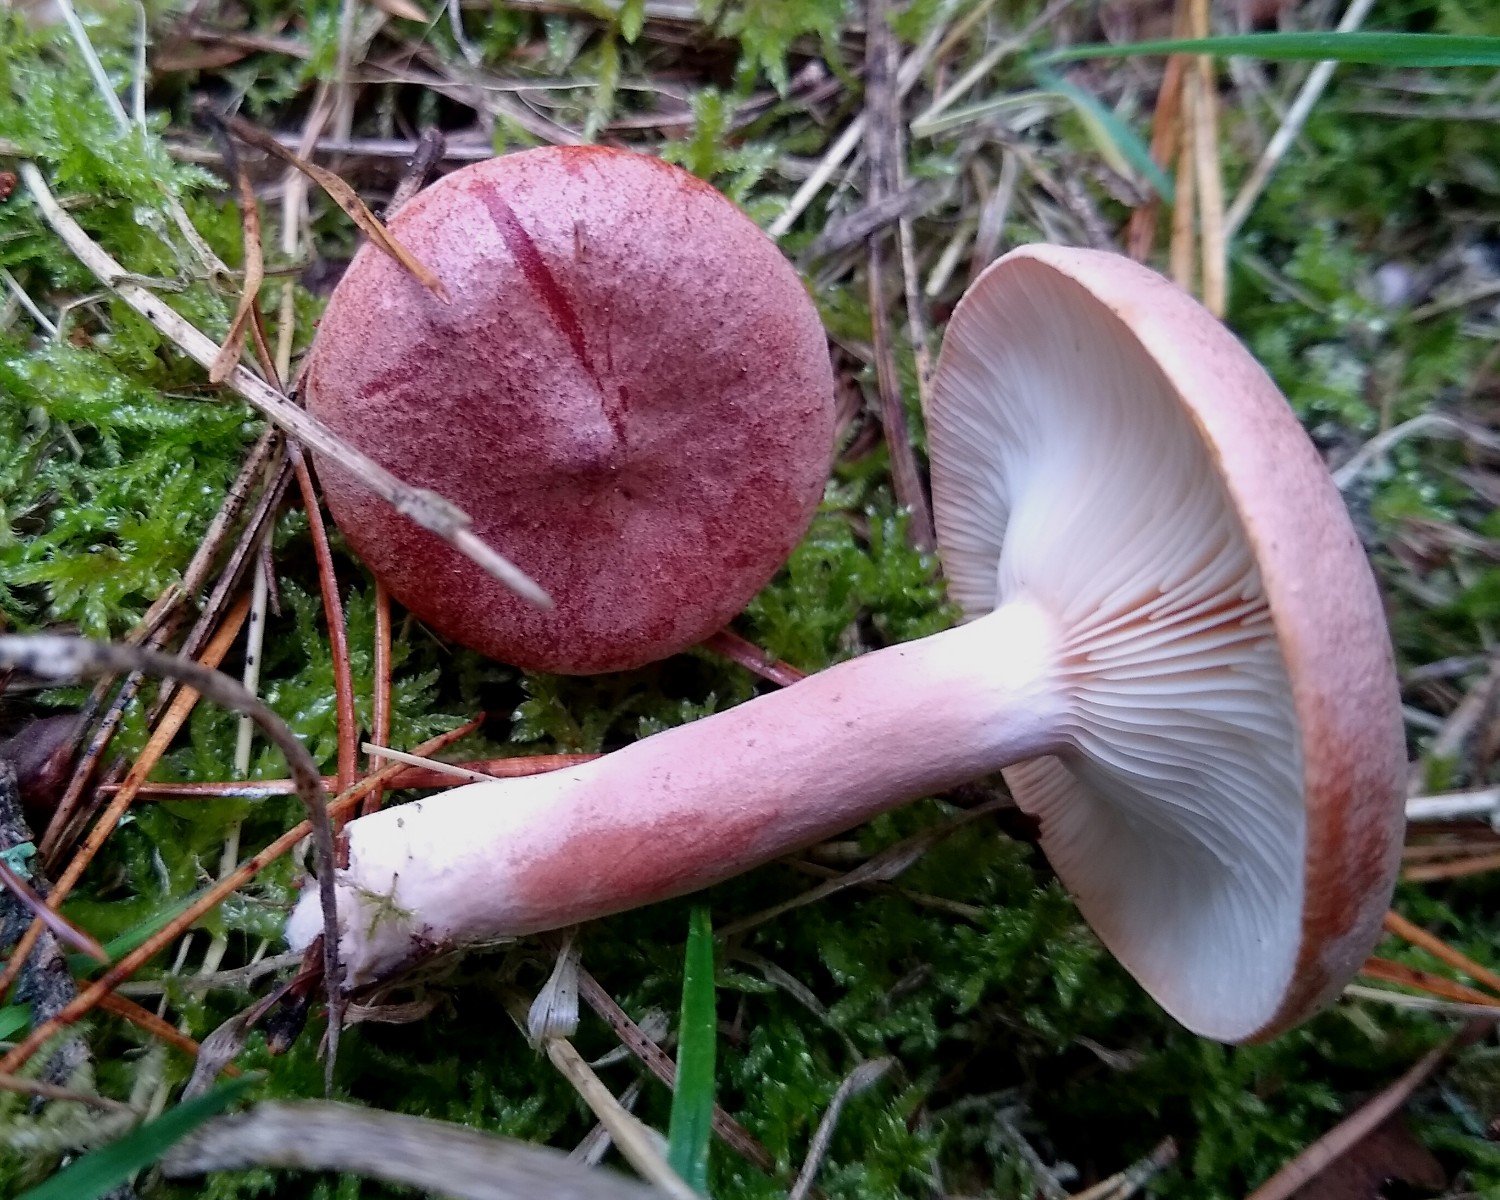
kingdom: Fungi
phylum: Basidiomycota
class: Agaricomycetes
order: Russulales
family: Russulaceae
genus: Lactarius
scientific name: Lactarius rufus
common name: rødbrun mælkehat
